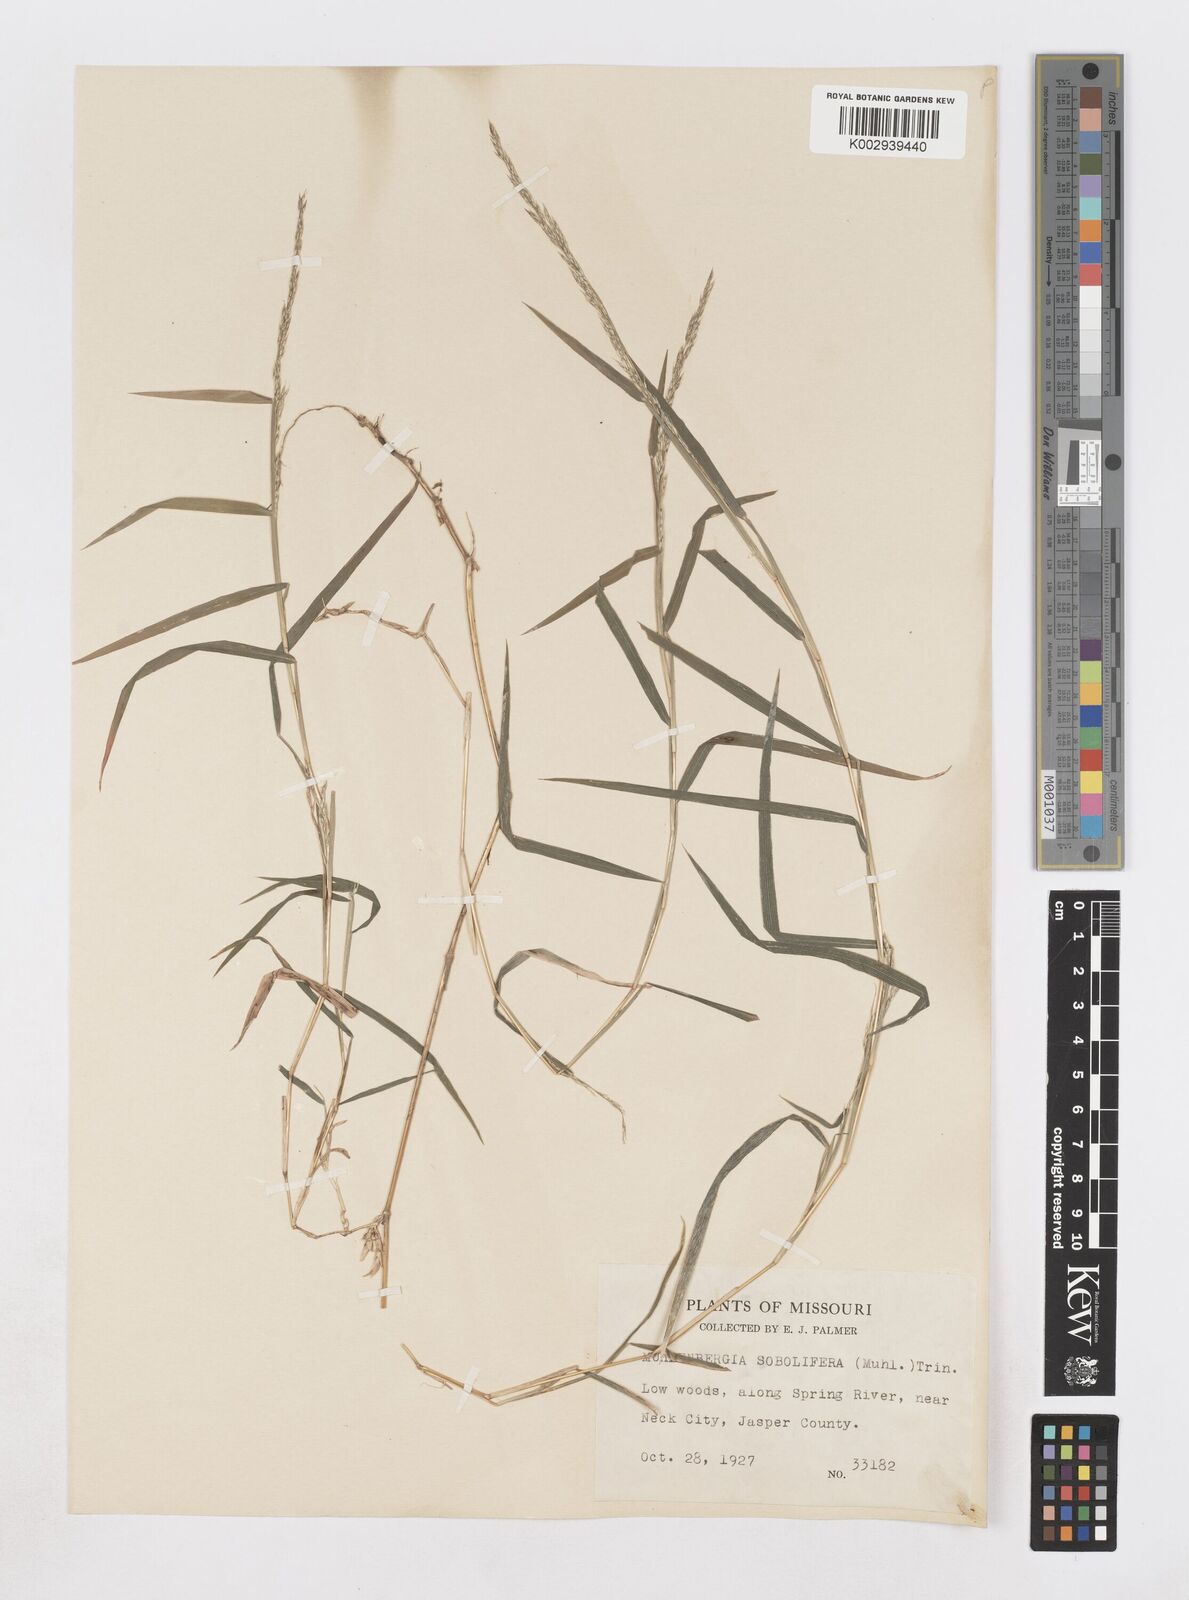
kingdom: Plantae
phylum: Tracheophyta
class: Liliopsida
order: Poales
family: Poaceae
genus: Muhlenbergia
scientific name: Muhlenbergia sobolifera
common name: Creeping muhly
